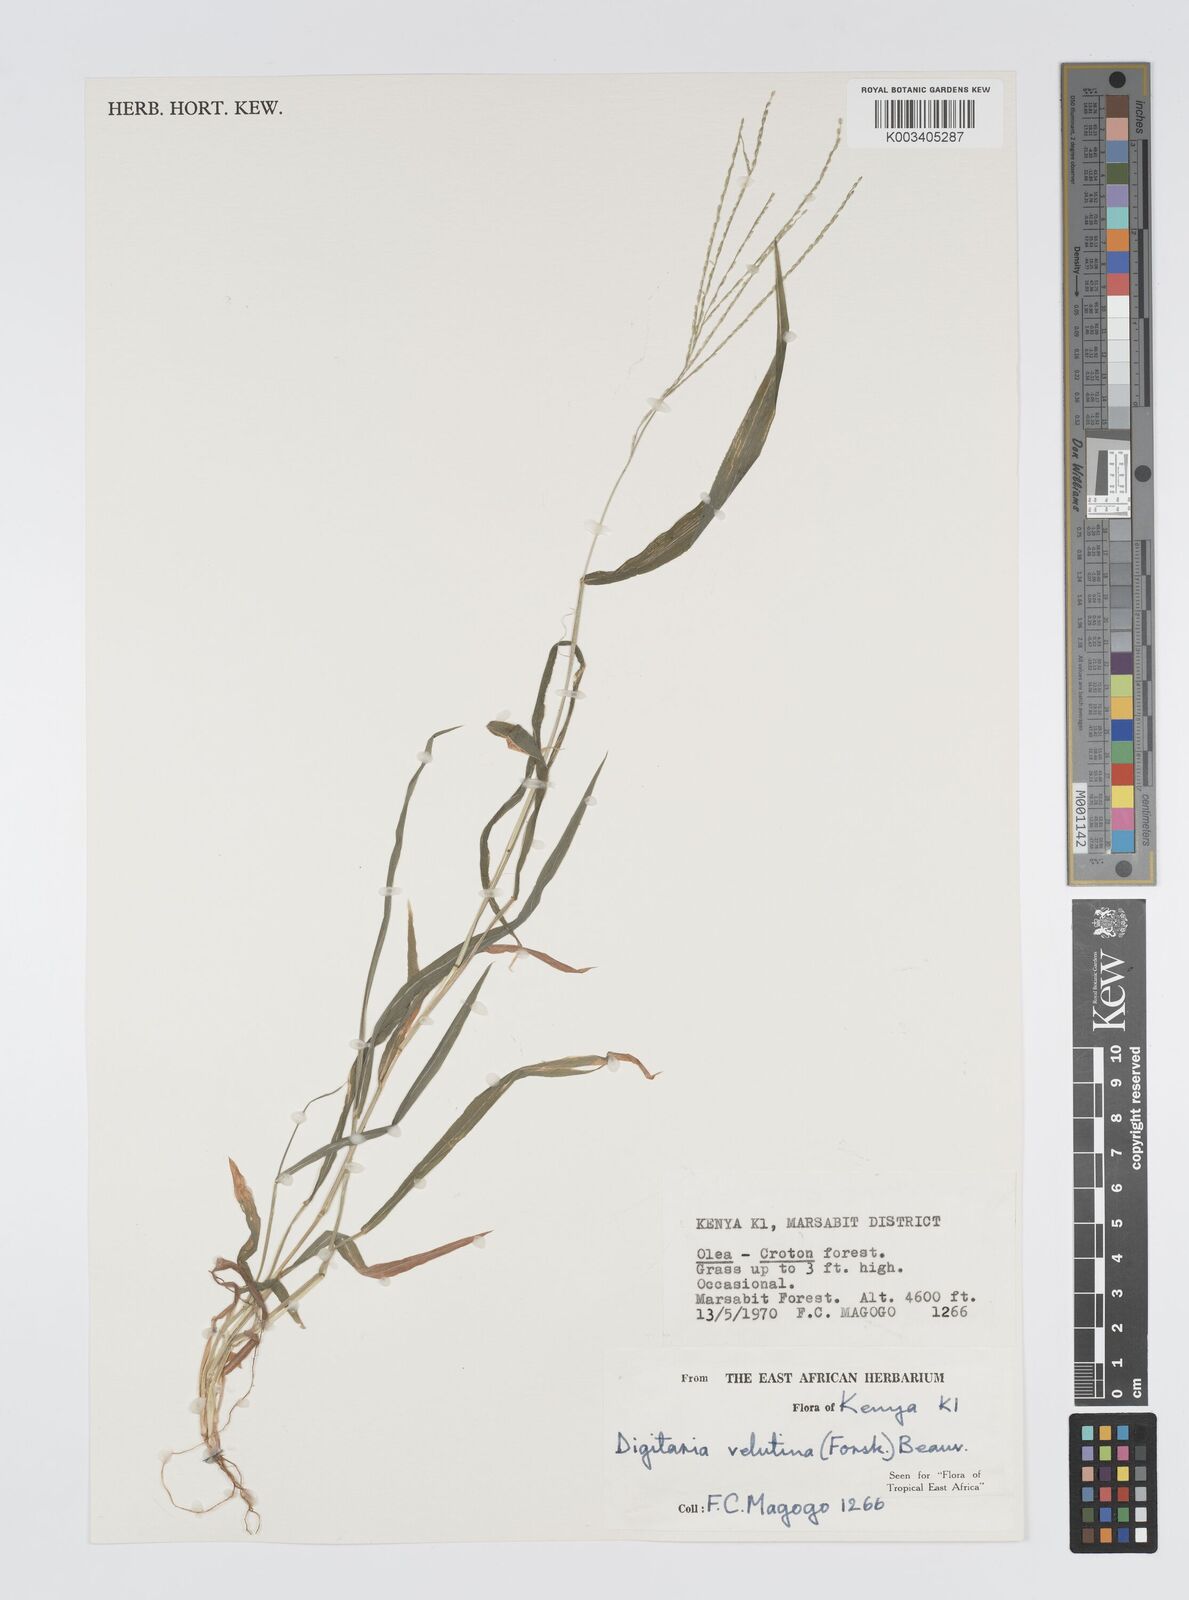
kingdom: Plantae
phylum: Tracheophyta
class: Liliopsida
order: Poales
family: Poaceae
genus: Digitaria
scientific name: Digitaria velutina
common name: Long-plume finger grass
